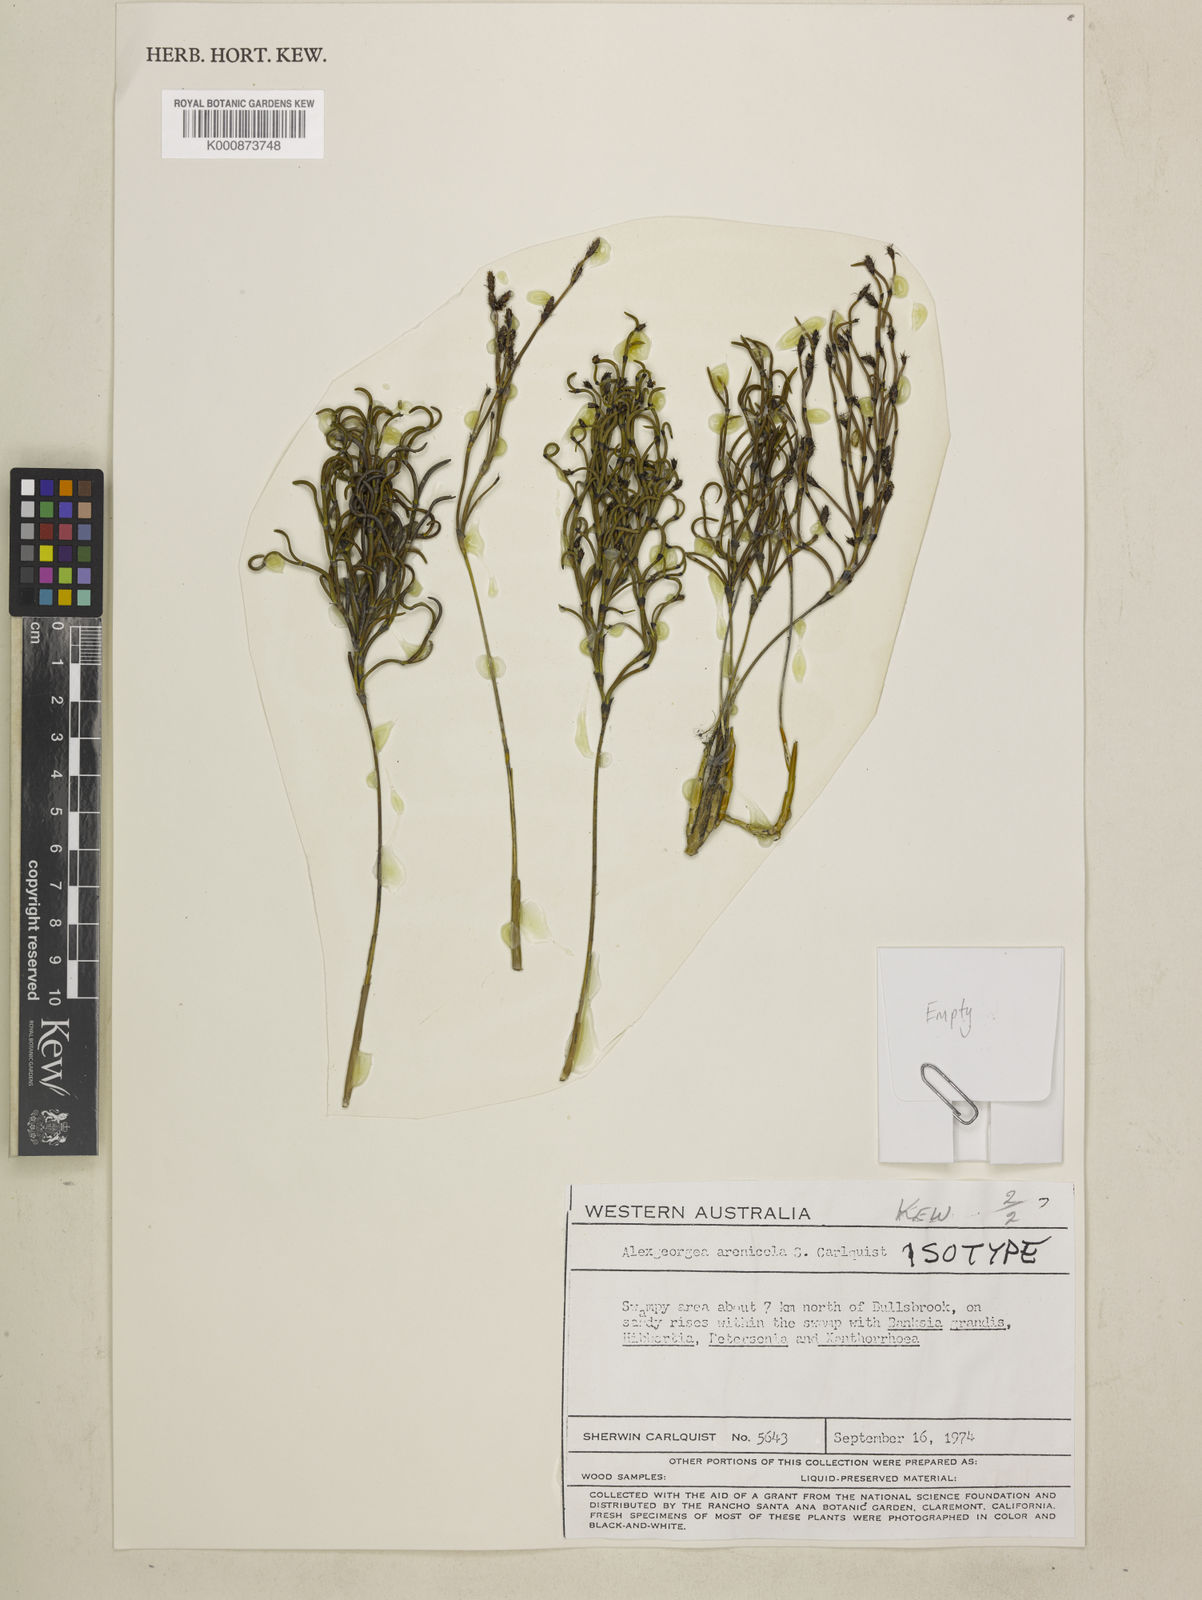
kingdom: Plantae
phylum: Tracheophyta
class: Liliopsida
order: Poales
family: Restionaceae
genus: Alexgeorgea
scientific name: Alexgeorgea nitens
